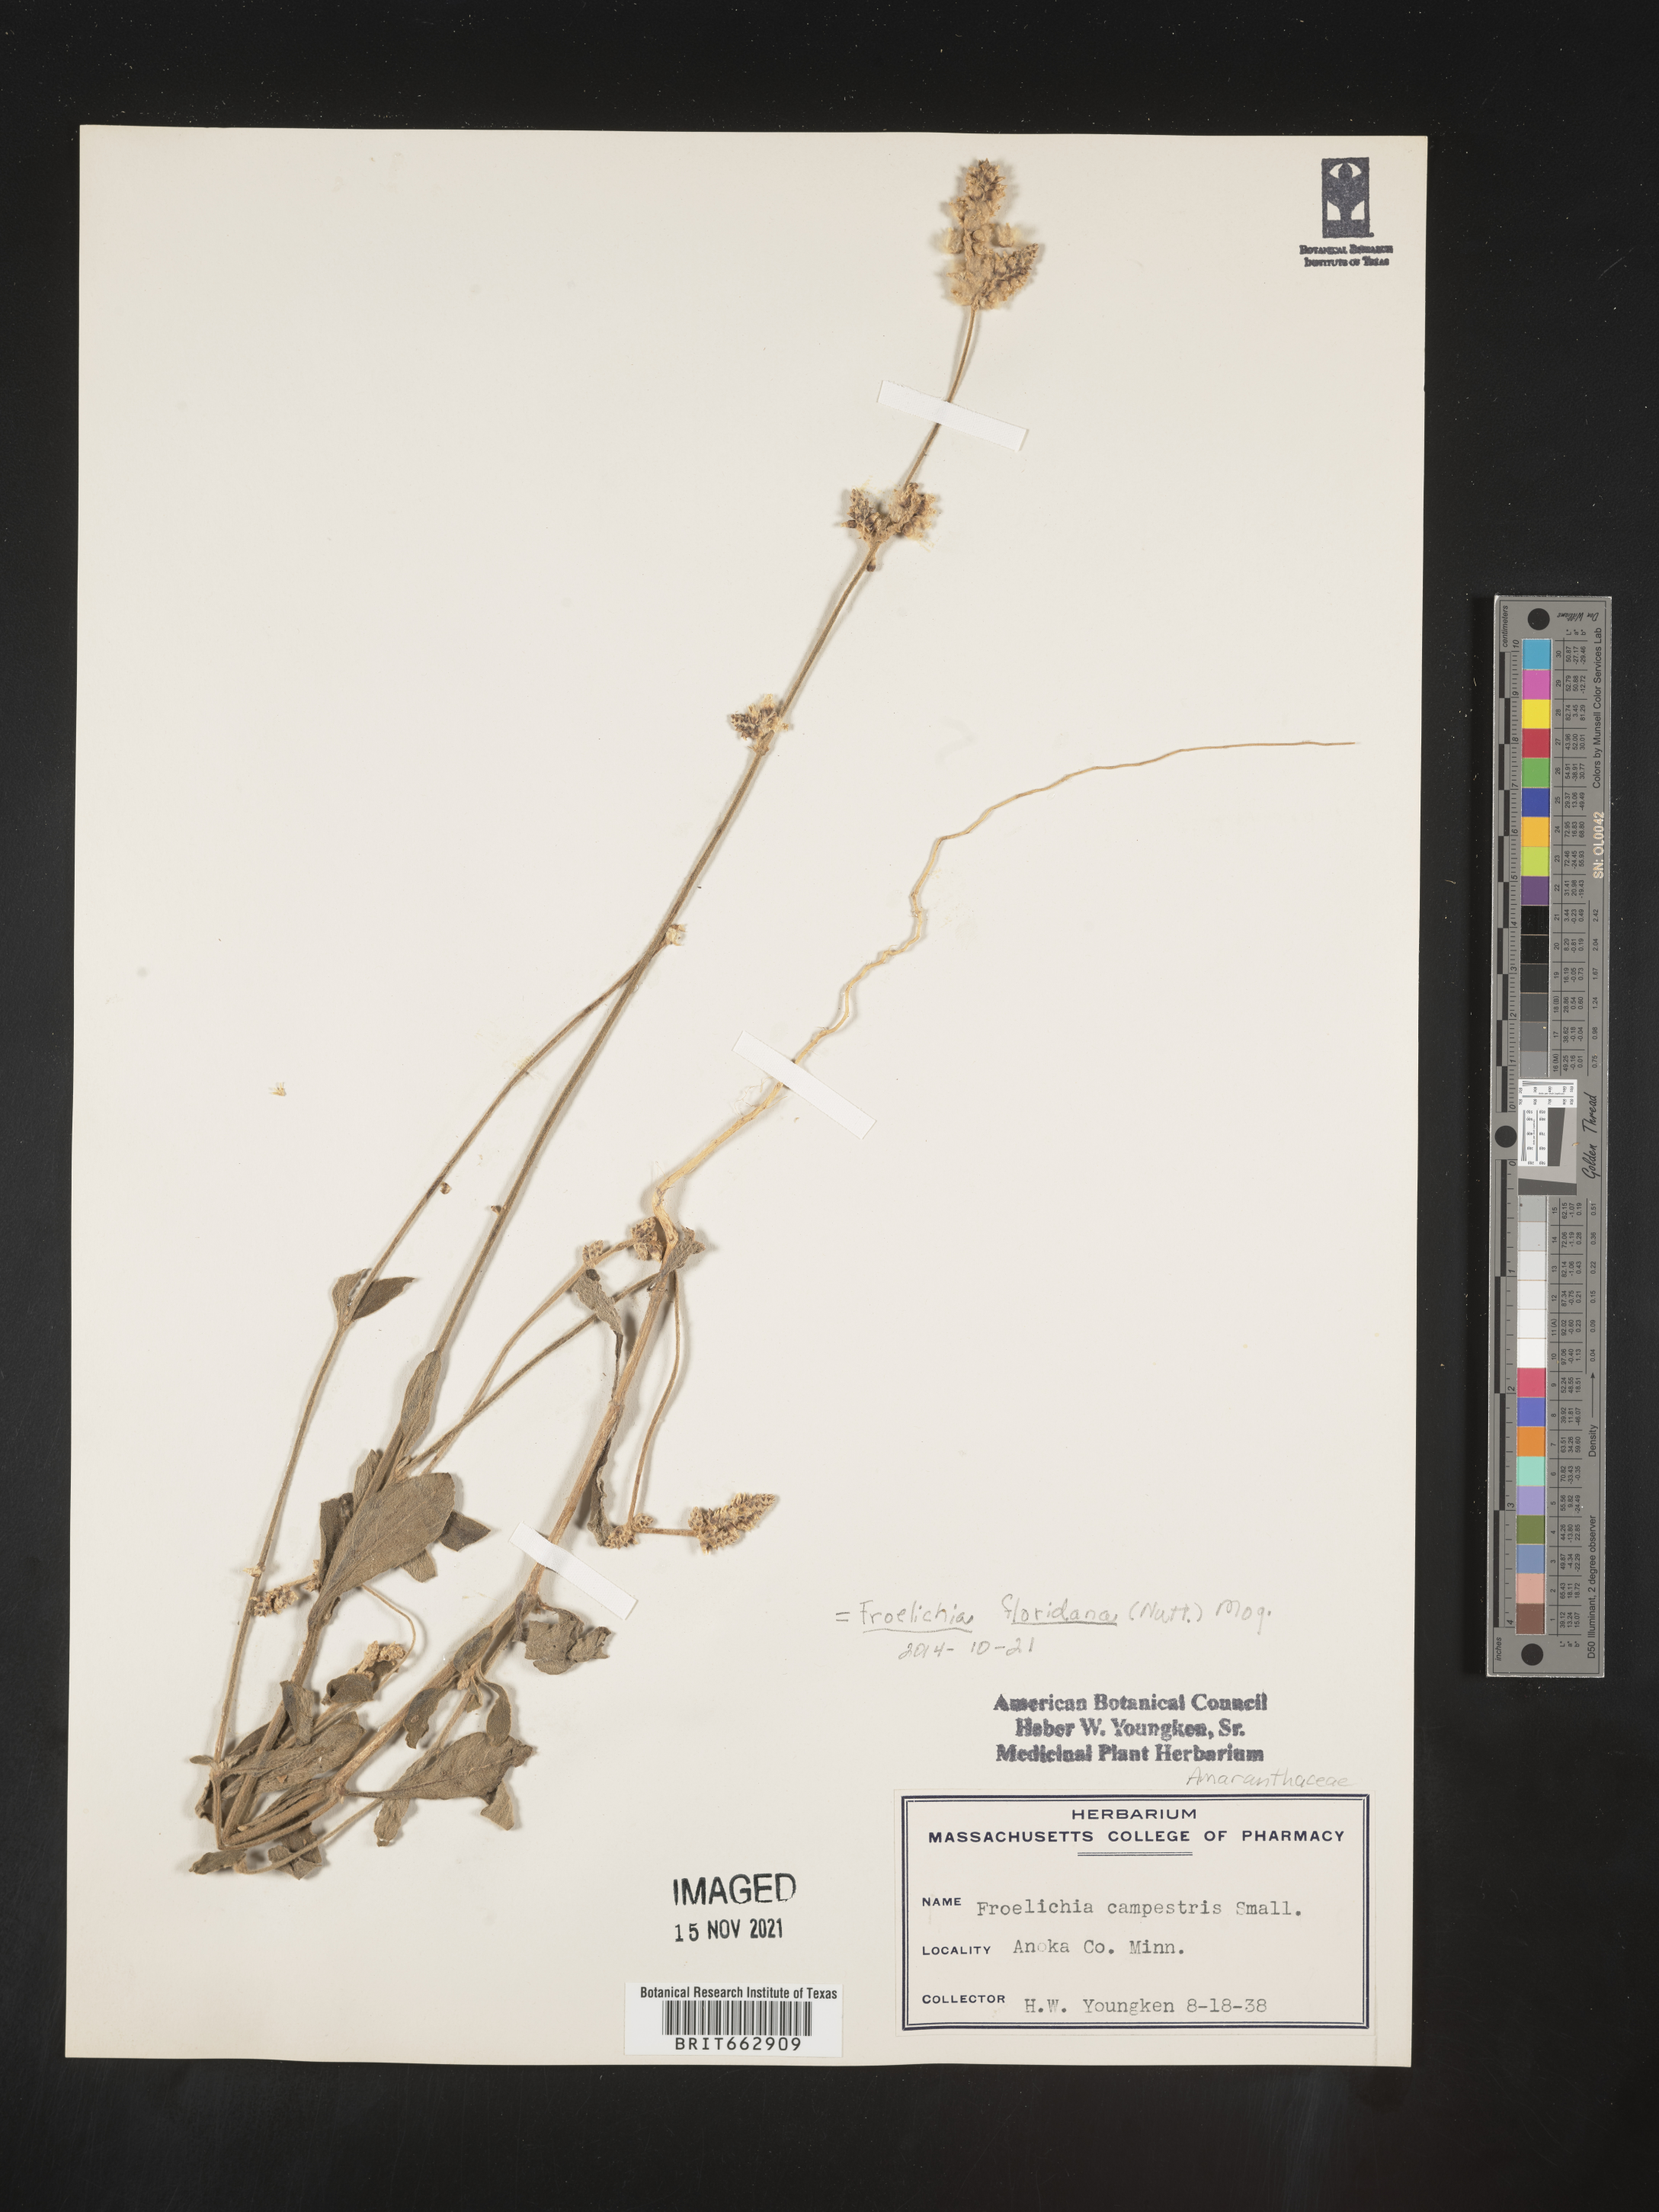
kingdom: Plantae
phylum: Tracheophyta
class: Magnoliopsida
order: Caryophyllales
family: Amaranthaceae
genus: Amaranthus
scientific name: Amaranthus
